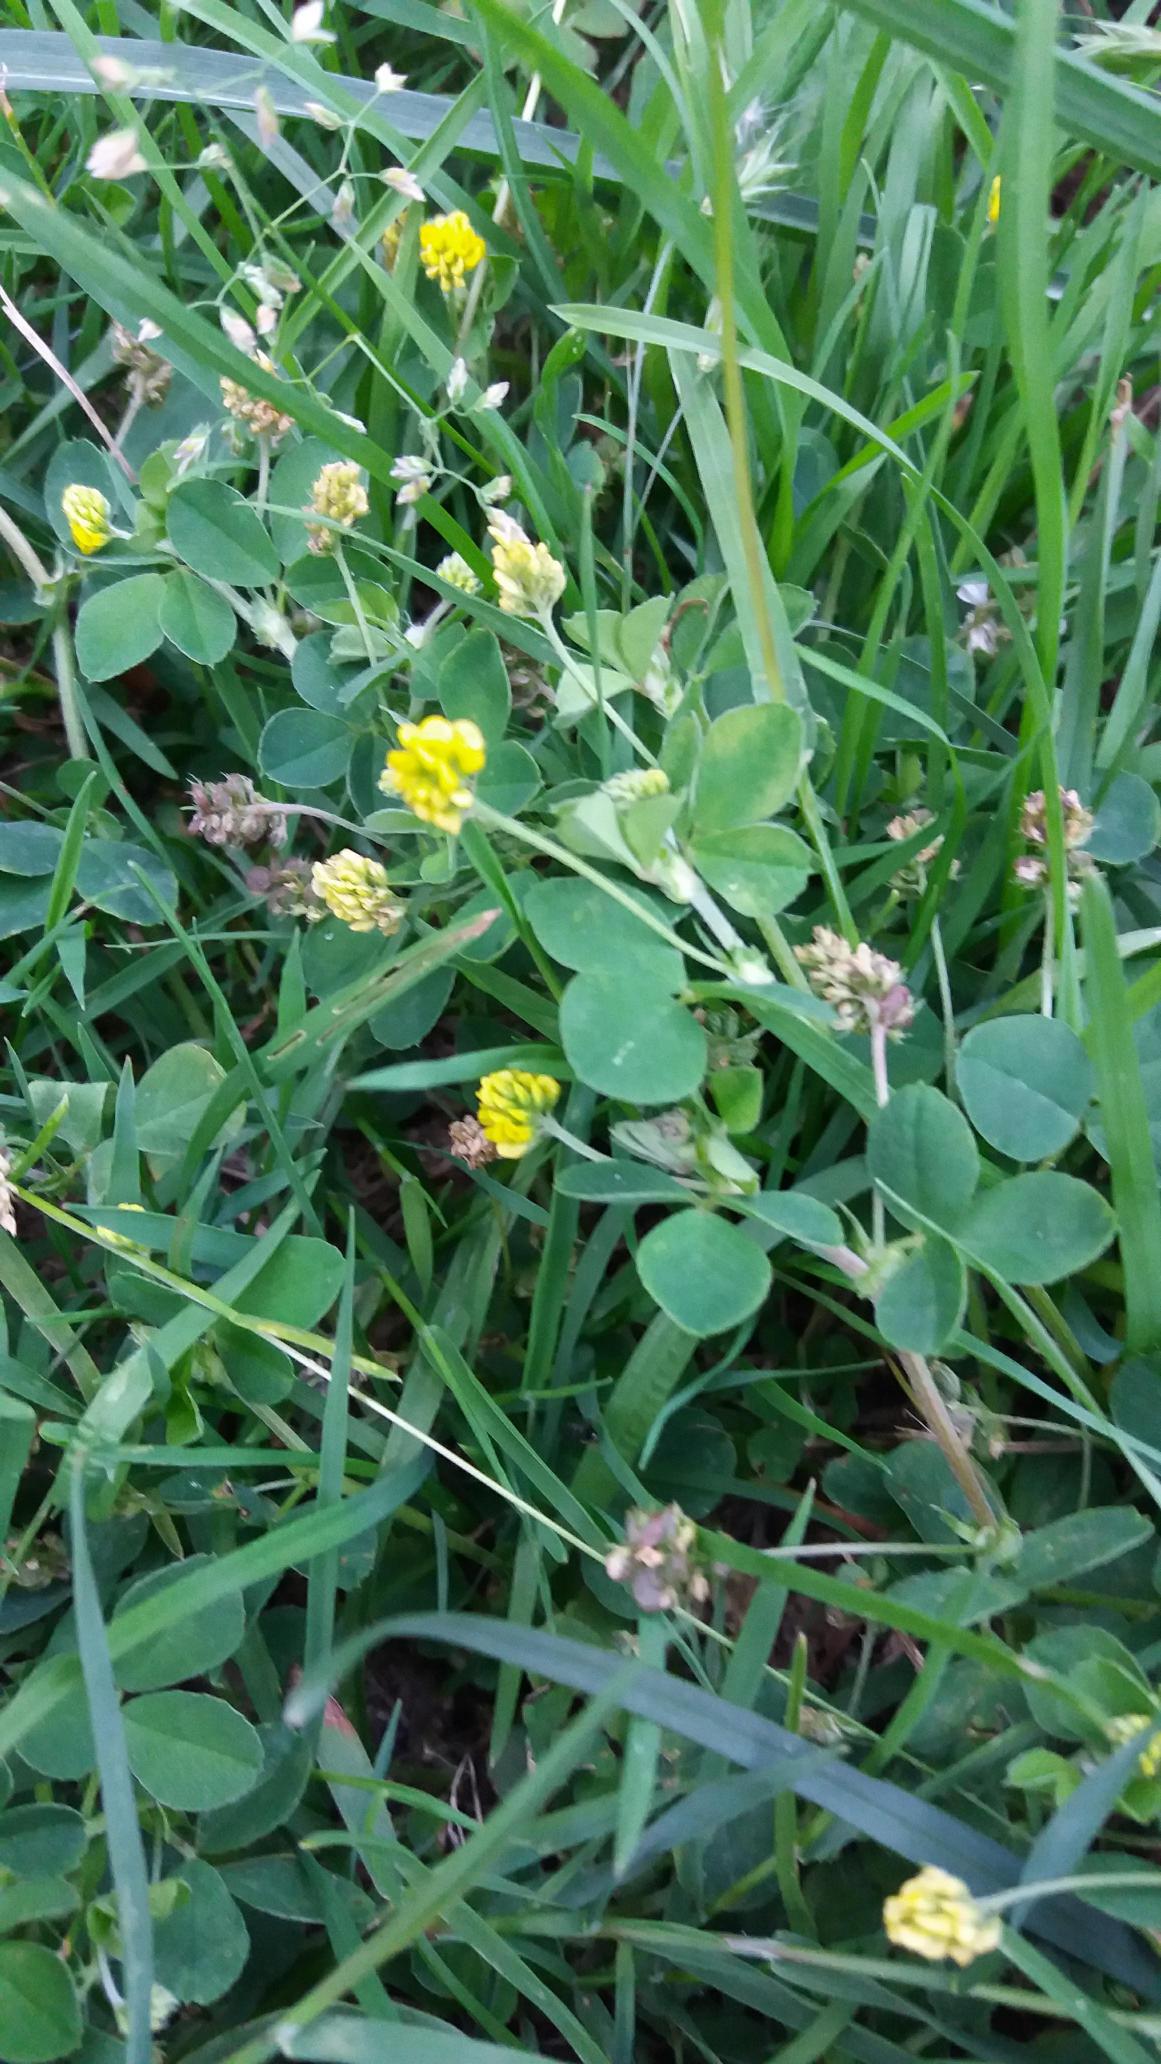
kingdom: Plantae
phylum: Tracheophyta
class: Magnoliopsida
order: Fabales
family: Fabaceae
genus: Medicago
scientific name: Medicago lupulina
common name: Humle-sneglebælg
